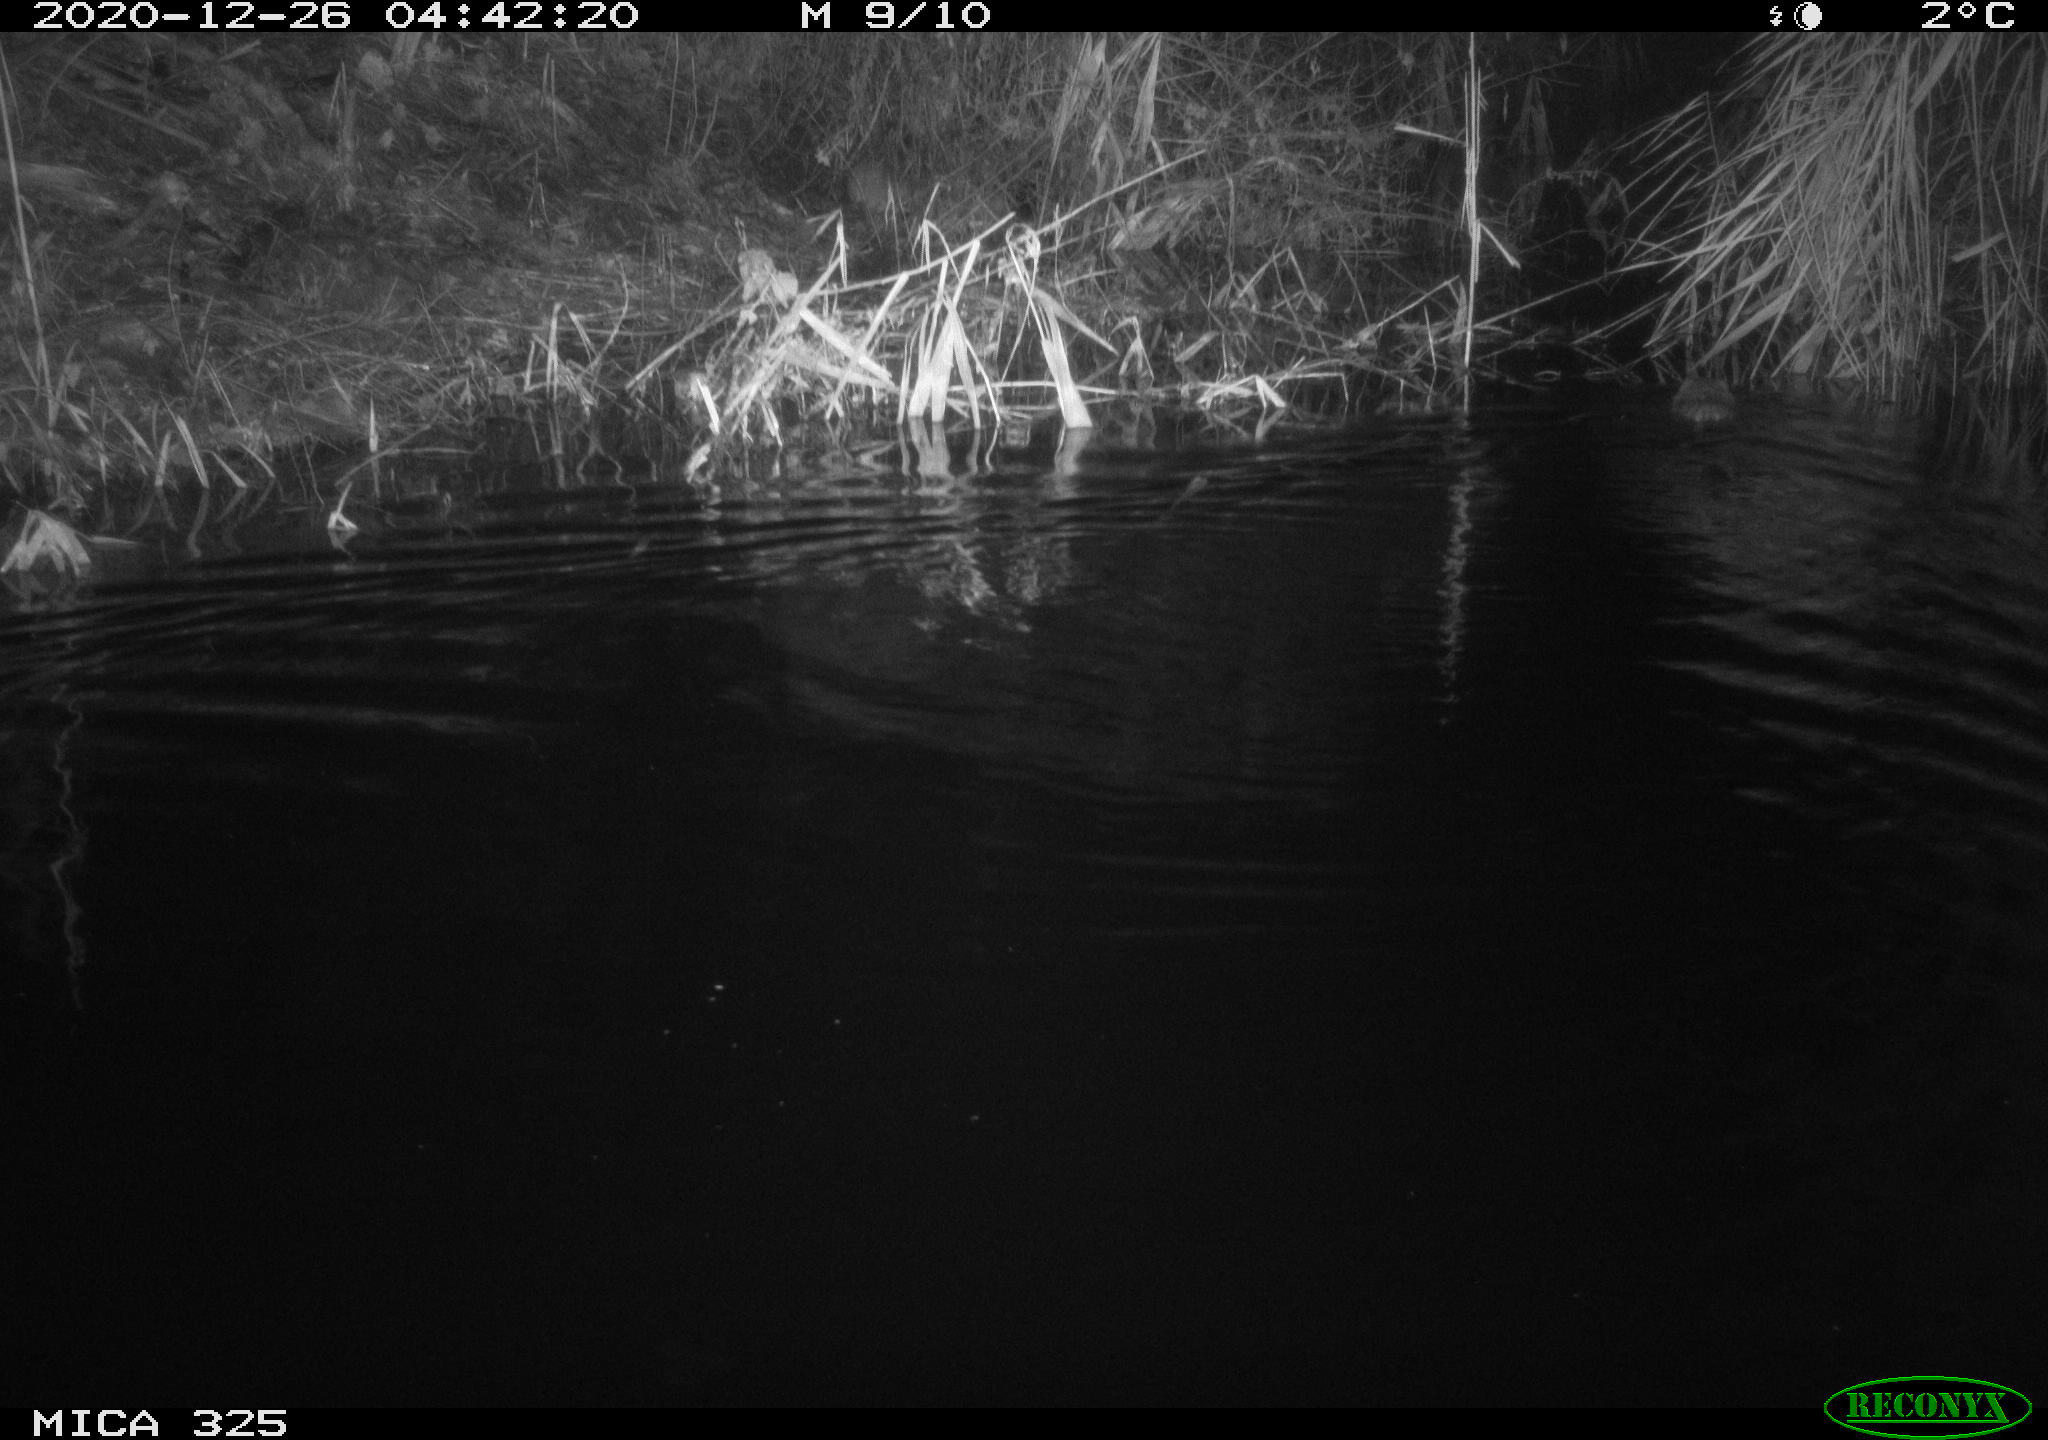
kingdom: Animalia
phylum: Chordata
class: Mammalia
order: Rodentia
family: Cricetidae
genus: Ondatra
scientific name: Ondatra zibethicus
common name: Muskrat
